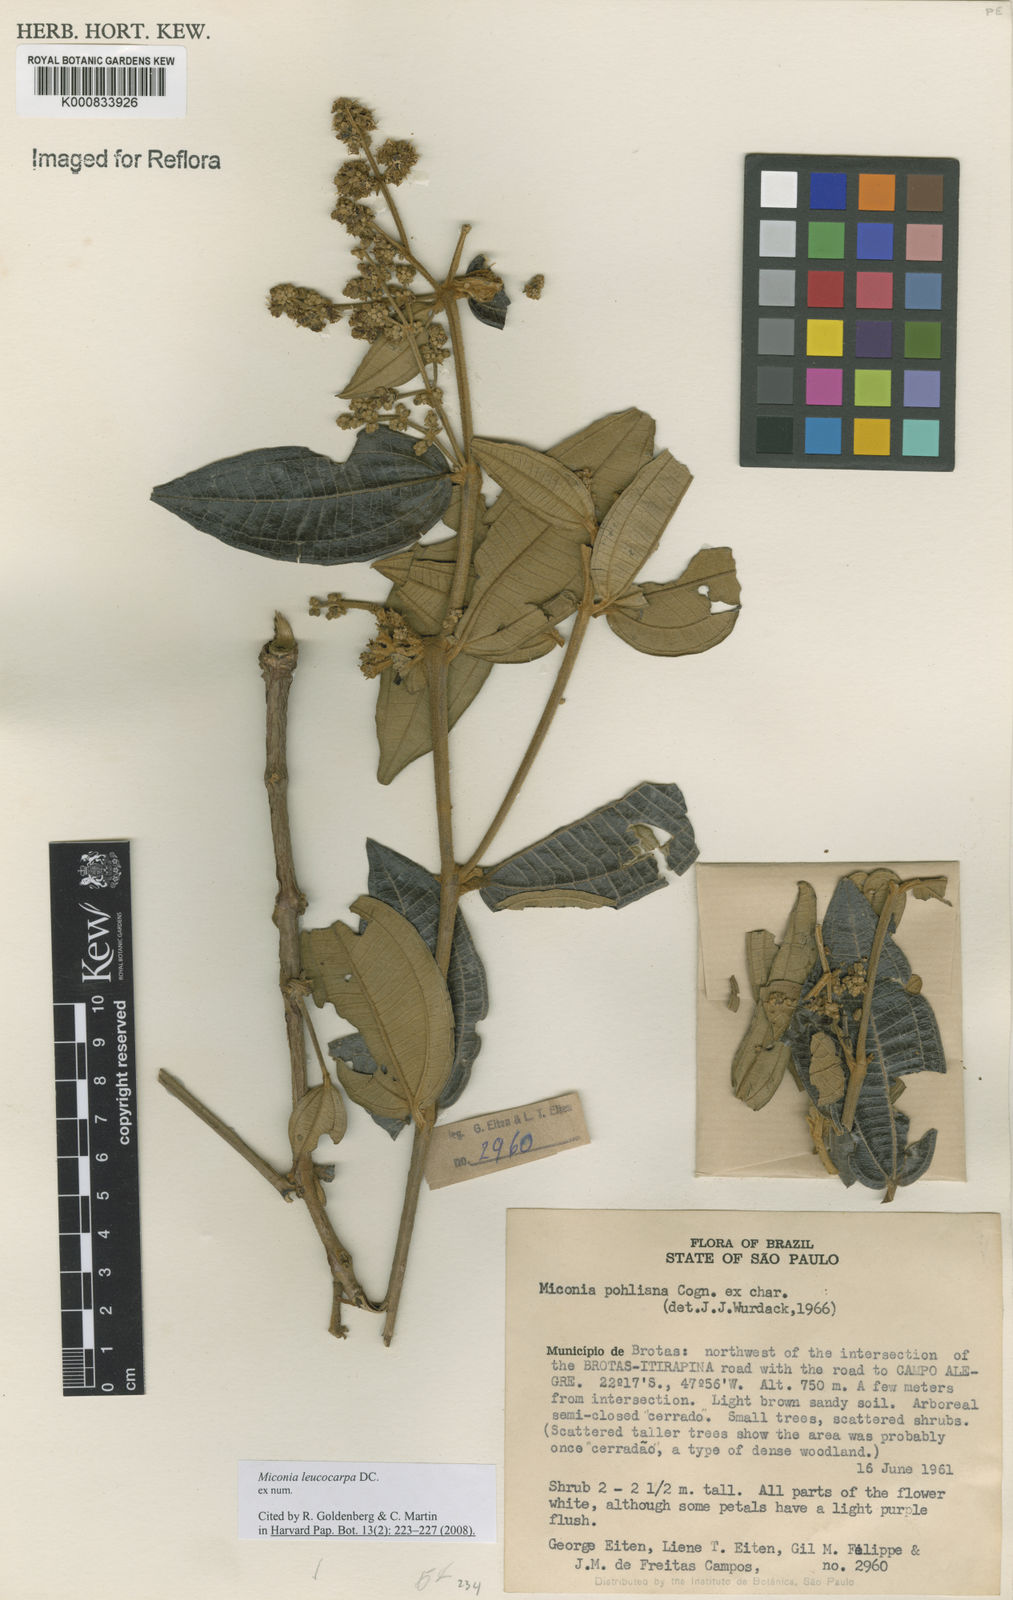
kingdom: Plantae
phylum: Tracheophyta
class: Magnoliopsida
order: Myrtales
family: Melastomataceae
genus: Miconia
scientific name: Miconia leucocarpa
